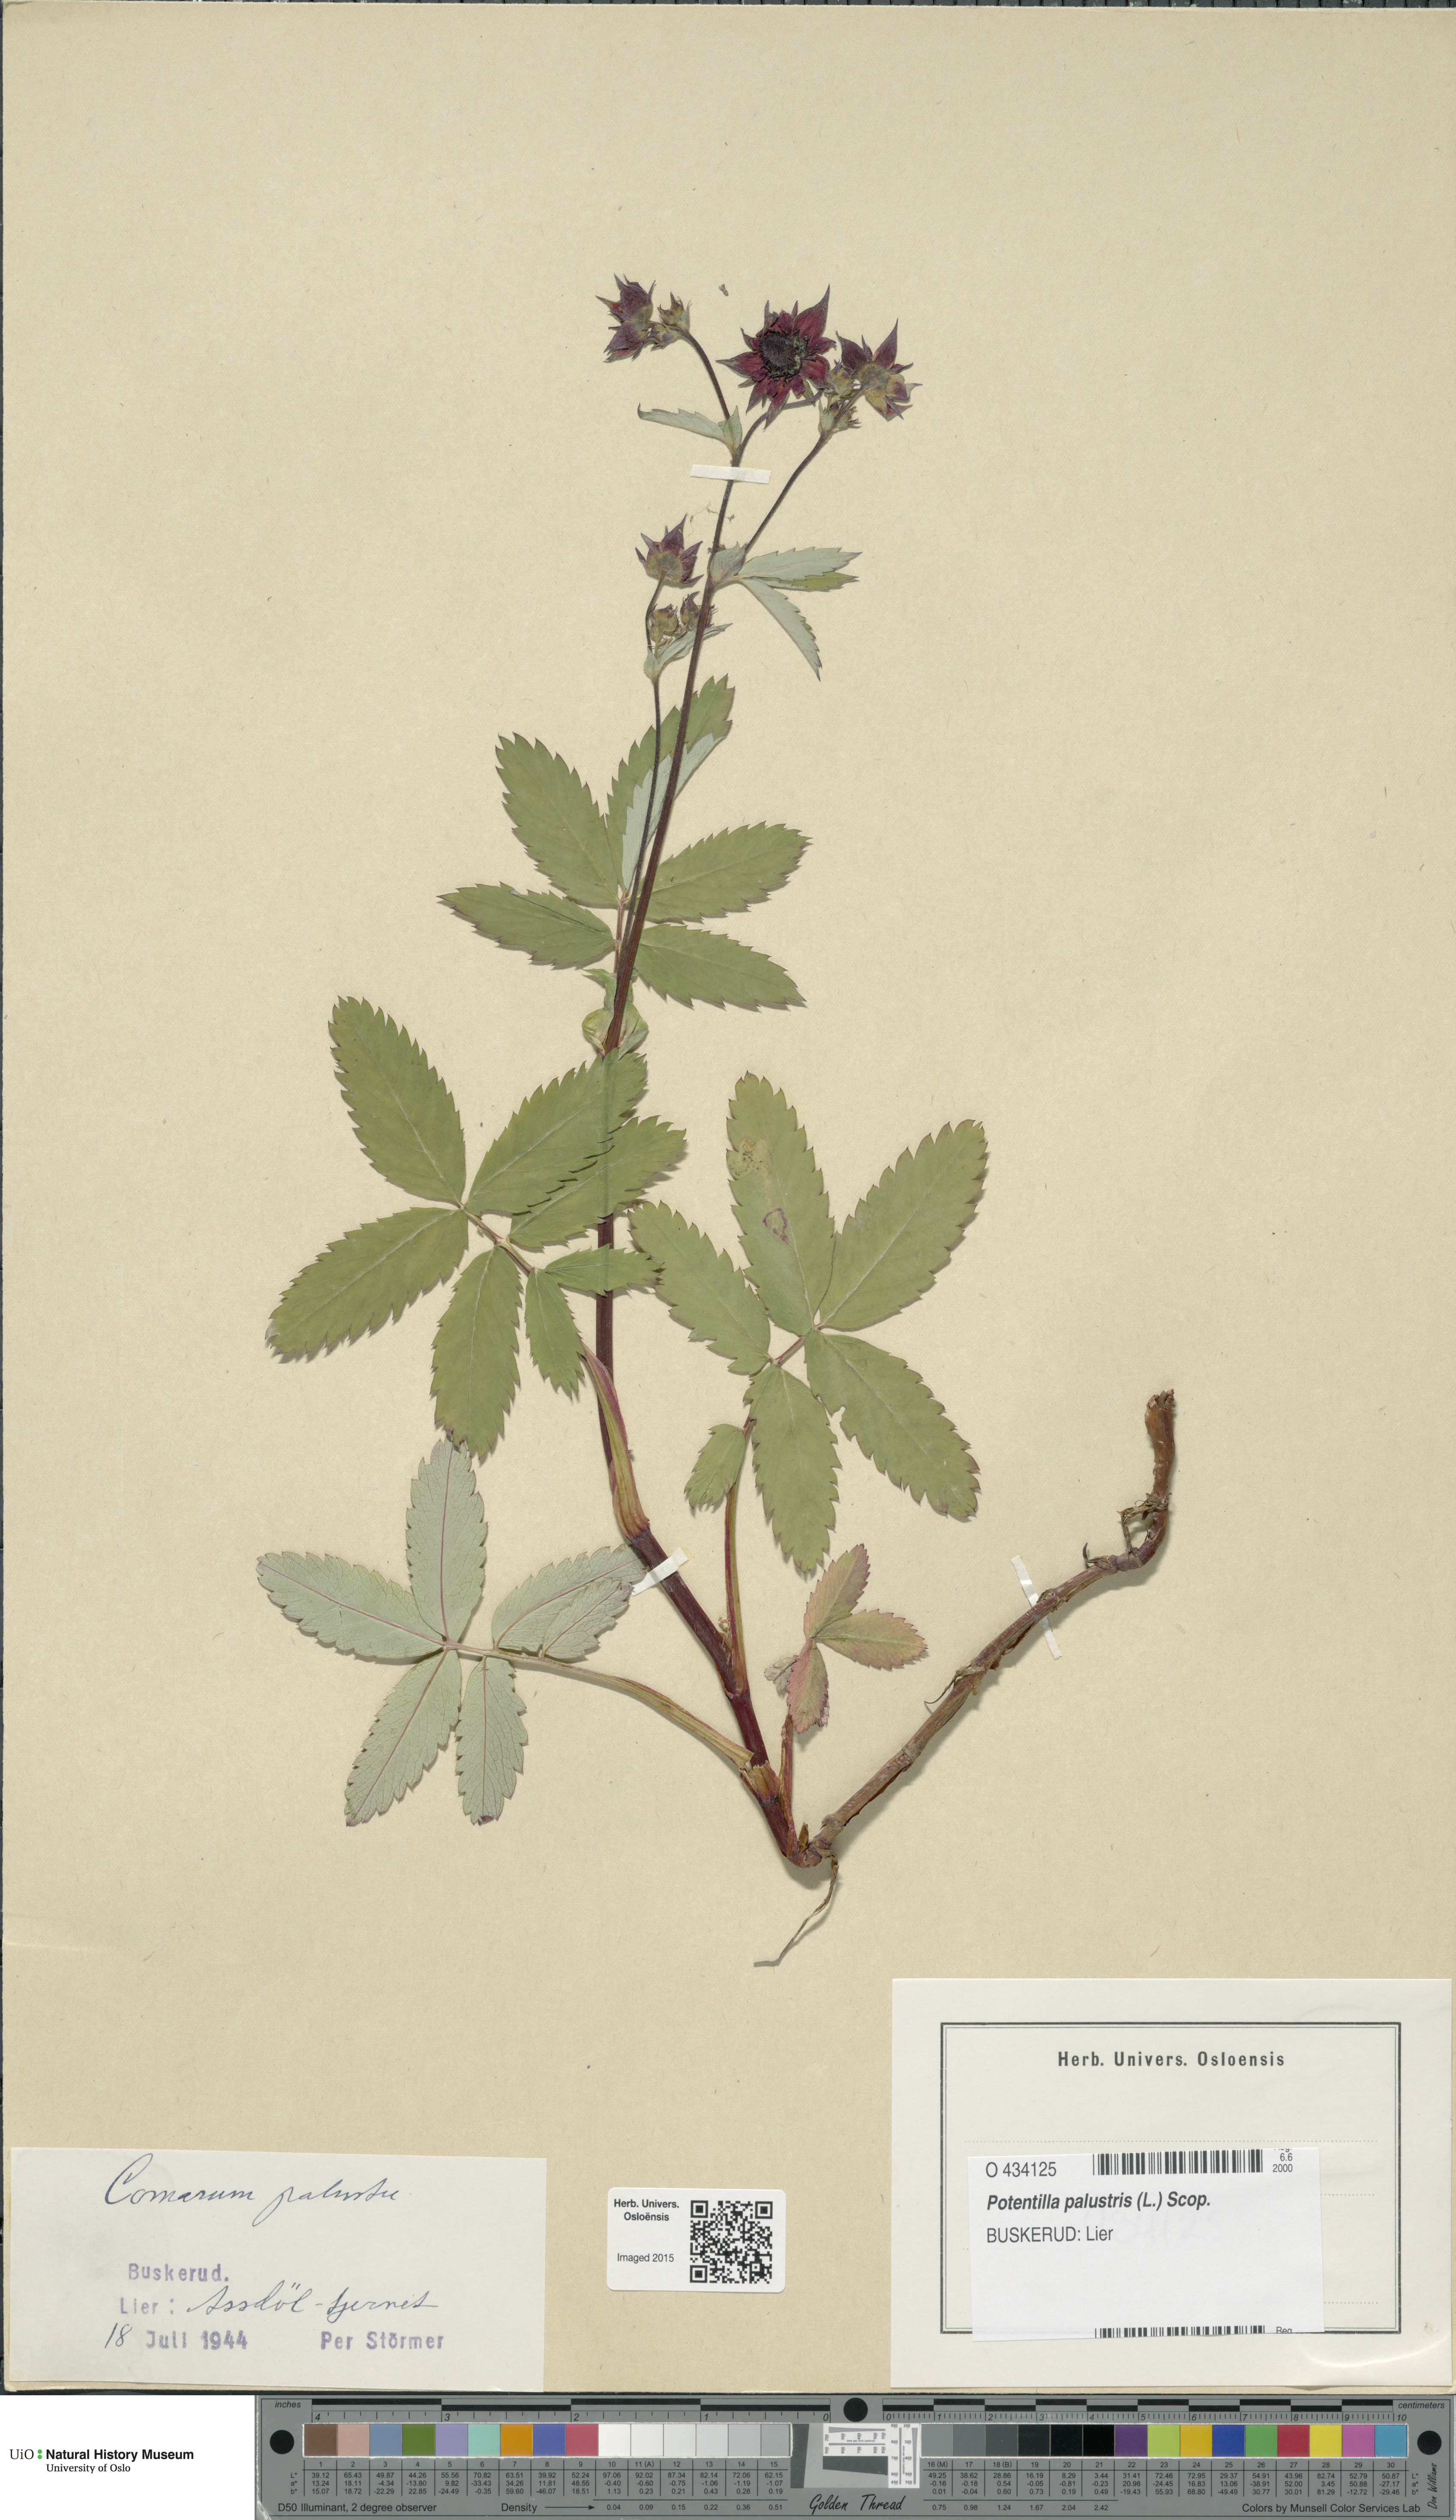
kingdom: Plantae
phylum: Tracheophyta
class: Magnoliopsida
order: Rosales
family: Rosaceae
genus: Comarum
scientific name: Comarum palustre
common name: Marsh cinquefoil
